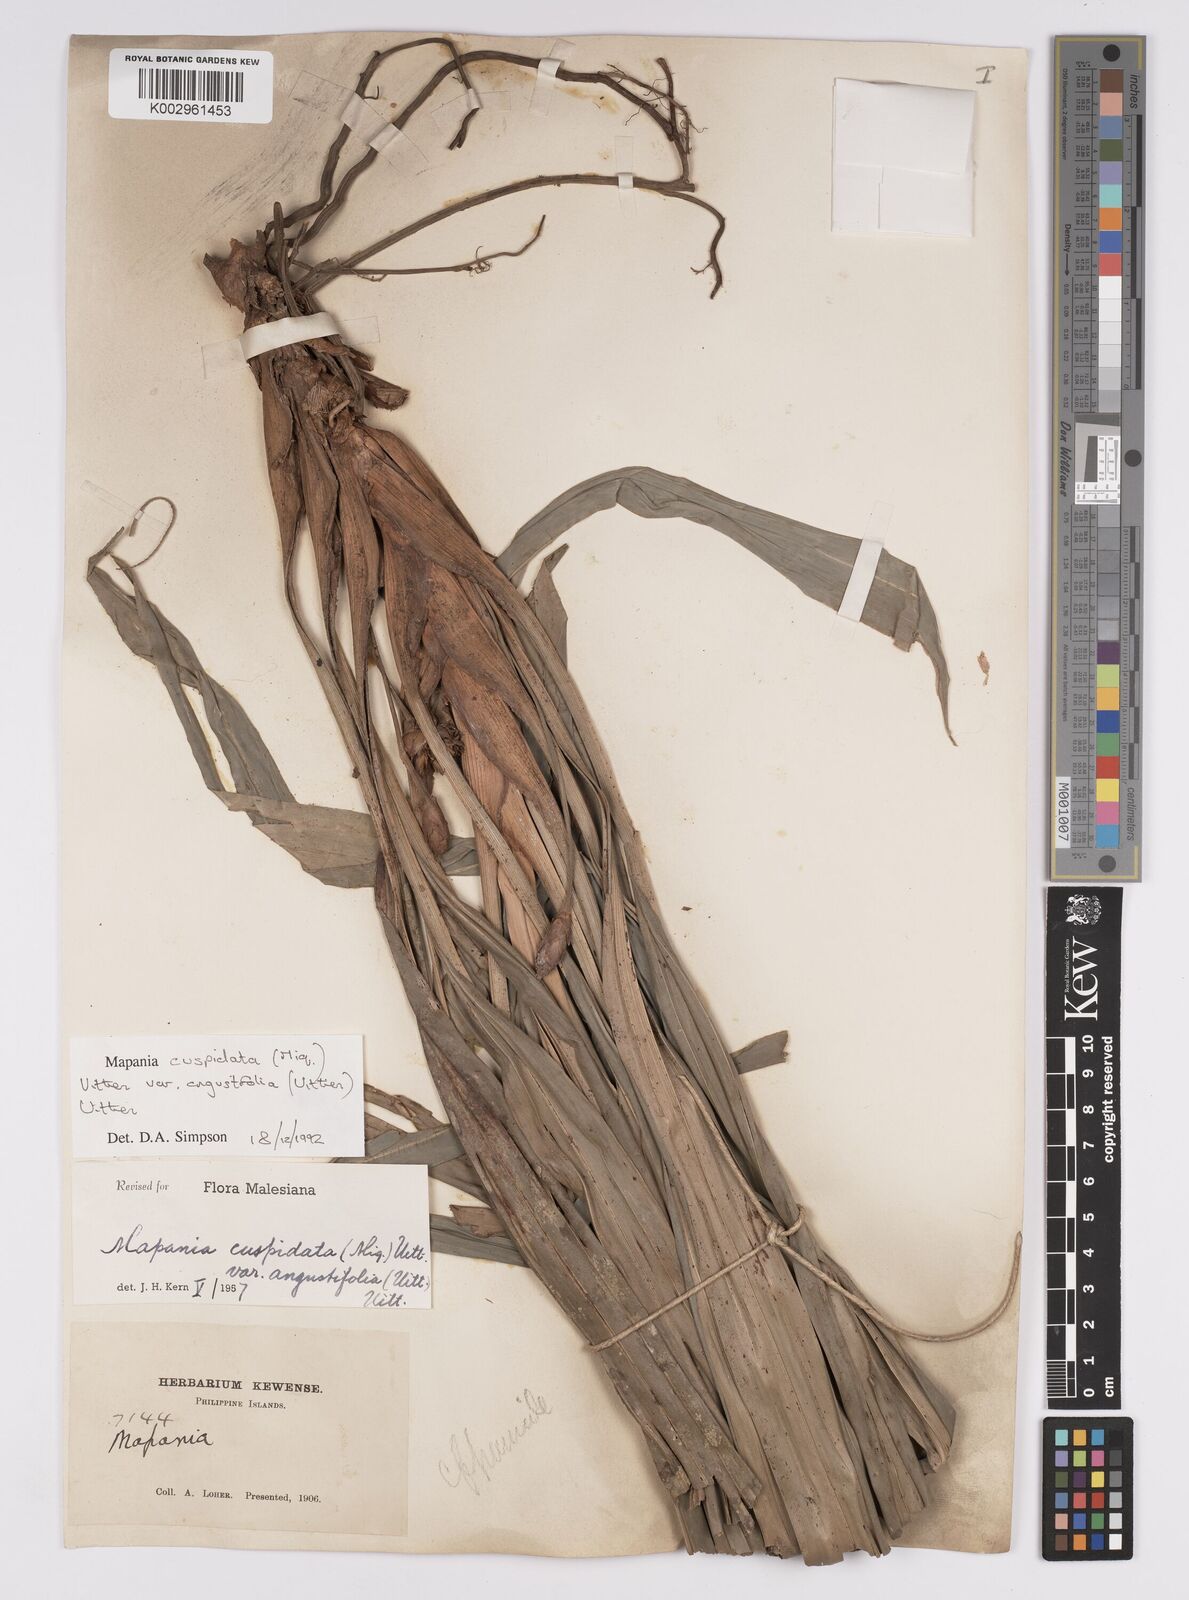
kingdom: Plantae
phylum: Tracheophyta
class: Liliopsida
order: Poales
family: Cyperaceae
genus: Mapania
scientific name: Mapania cuspidata
